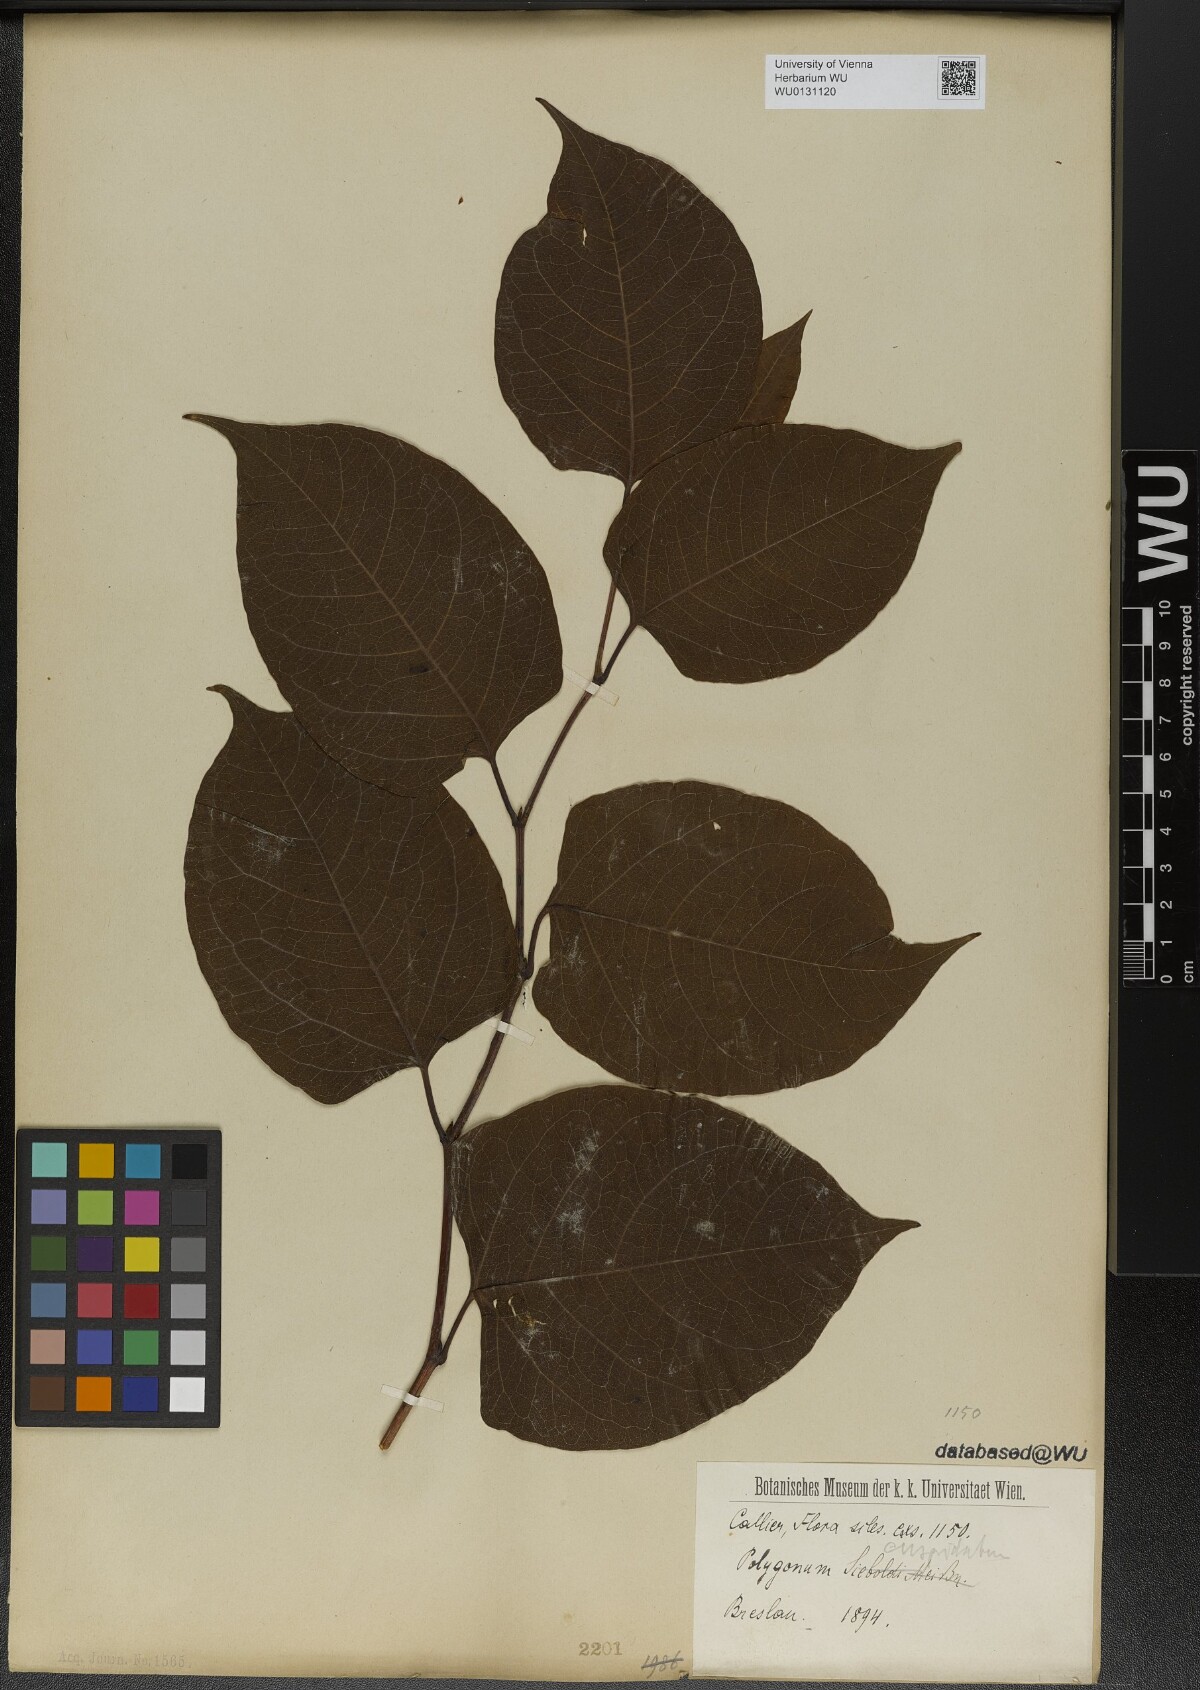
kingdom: Plantae
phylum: Tracheophyta
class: Magnoliopsida
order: Caryophyllales
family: Polygonaceae
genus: Reynoutria
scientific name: Reynoutria japonica
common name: Japanese knotweed
